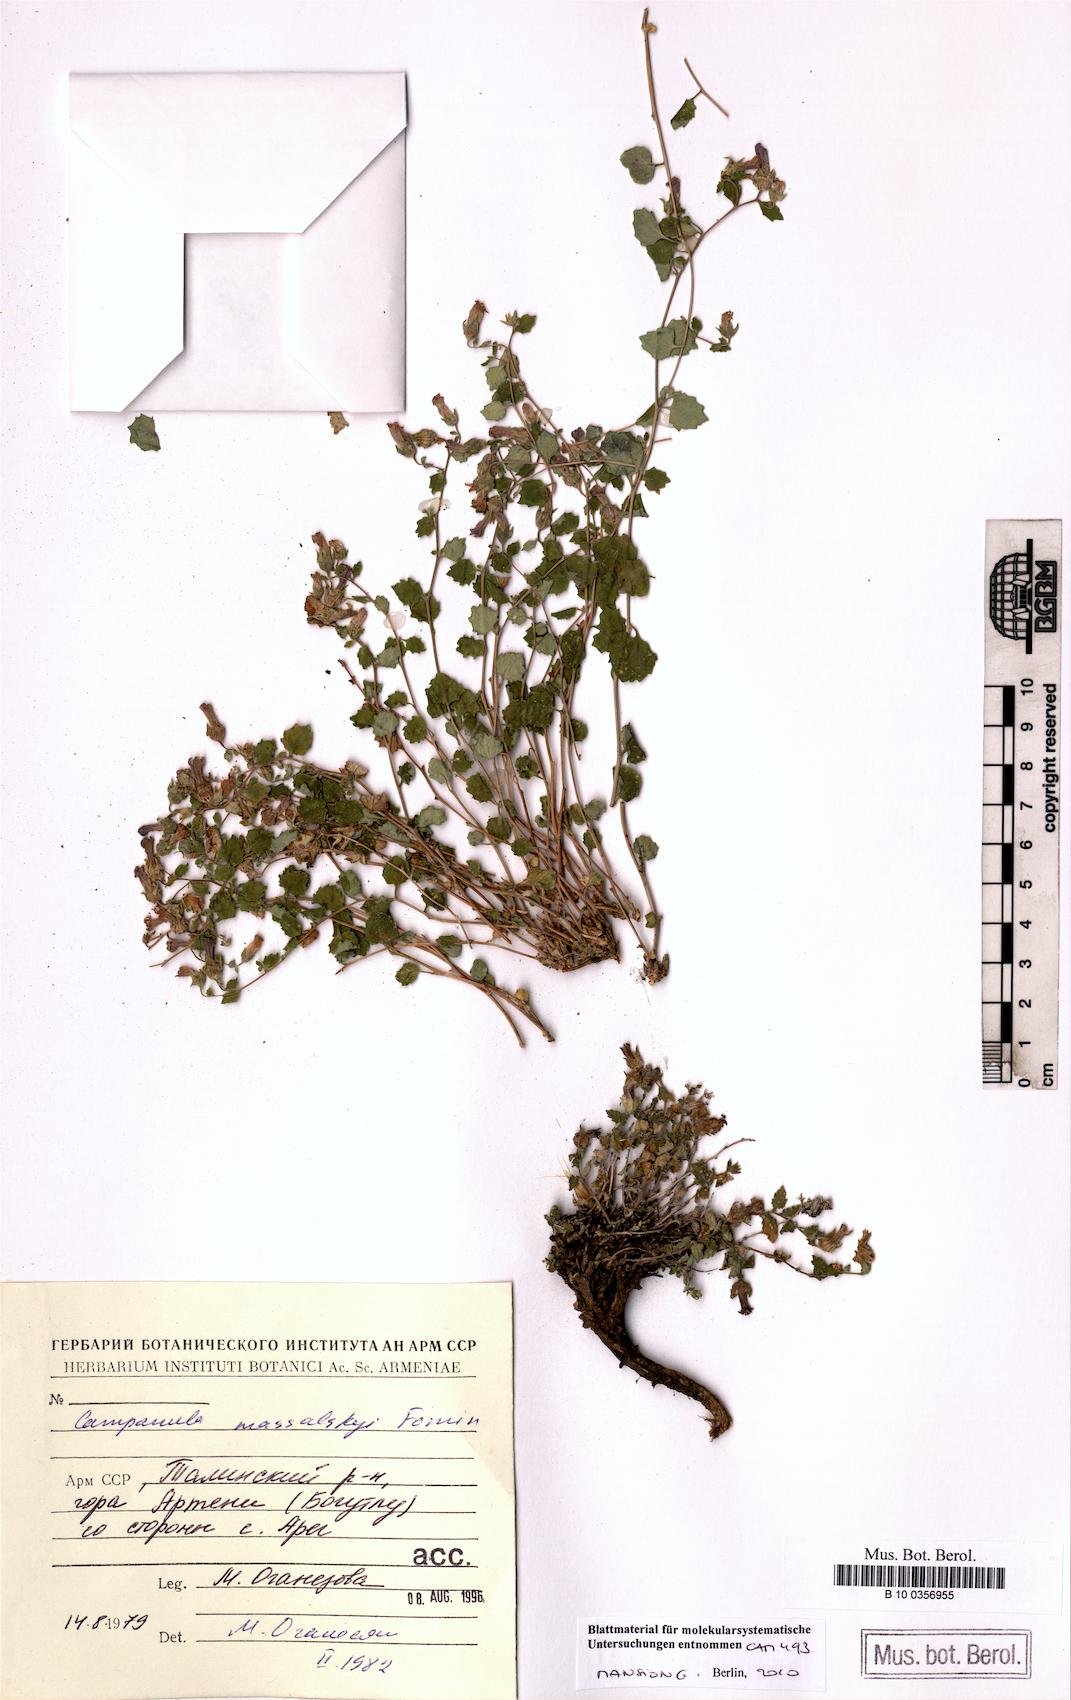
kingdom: Plantae
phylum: Tracheophyta
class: Magnoliopsida
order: Asterales
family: Campanulaceae
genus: Campanula
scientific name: Campanula massalskyi
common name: Massalsky's campanula
